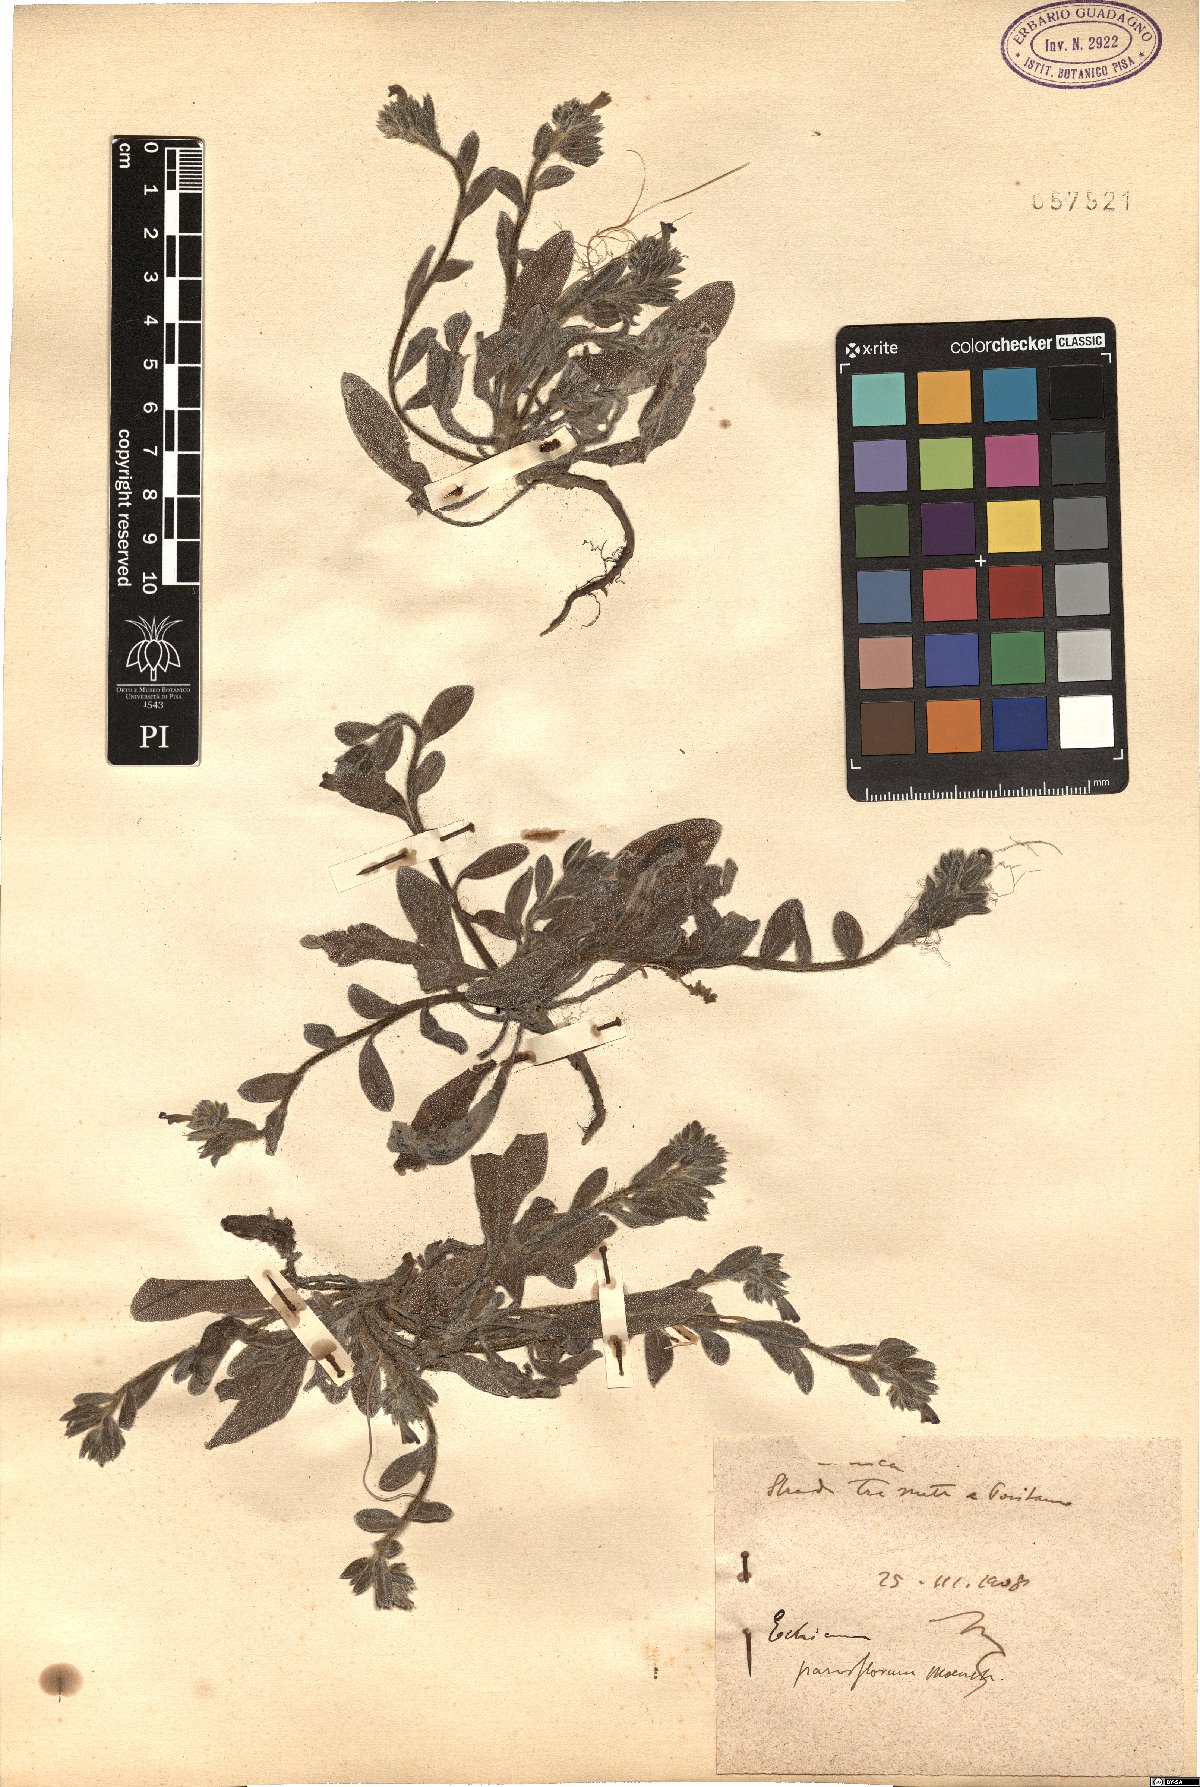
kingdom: Plantae
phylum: Tracheophyta
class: Magnoliopsida
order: Boraginales
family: Boraginaceae
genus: Echium
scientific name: Echium parviflorum
